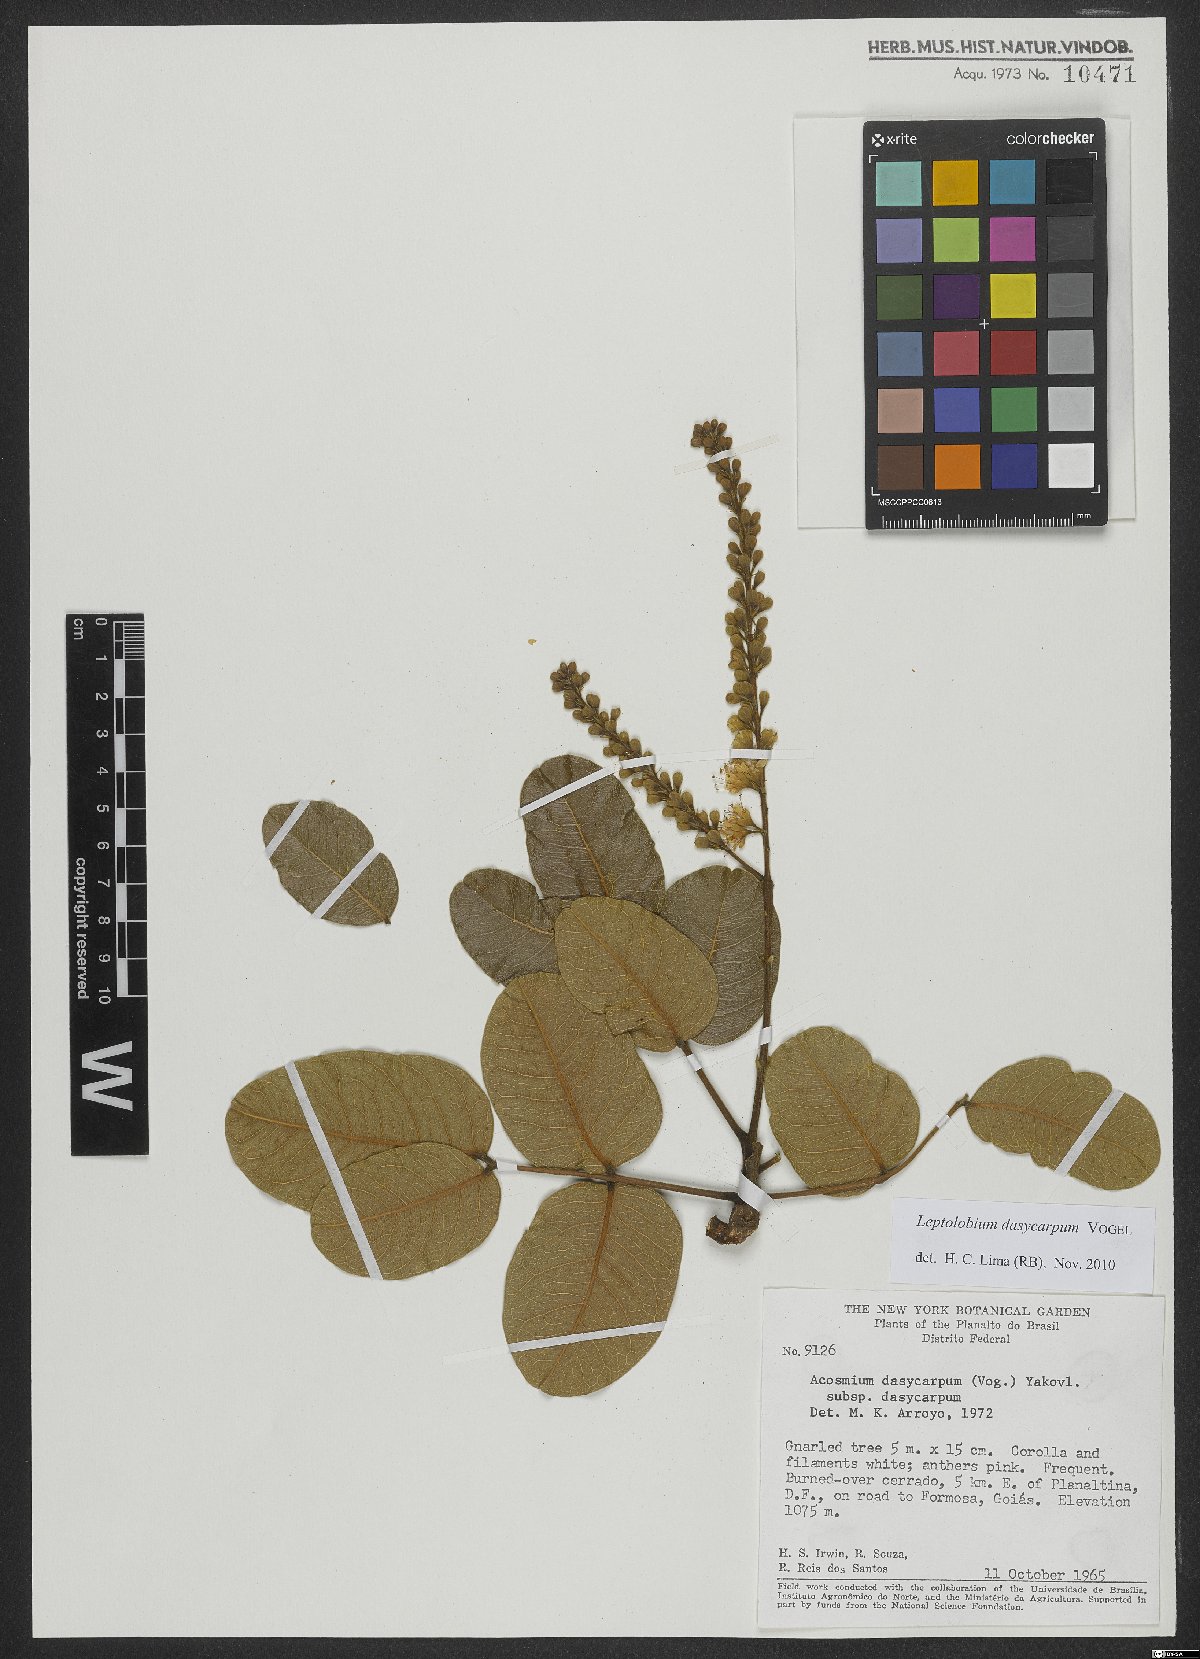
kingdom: Plantae
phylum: Tracheophyta
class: Magnoliopsida
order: Fabales
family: Fabaceae
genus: Leptolobium
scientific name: Leptolobium dasycarpum
